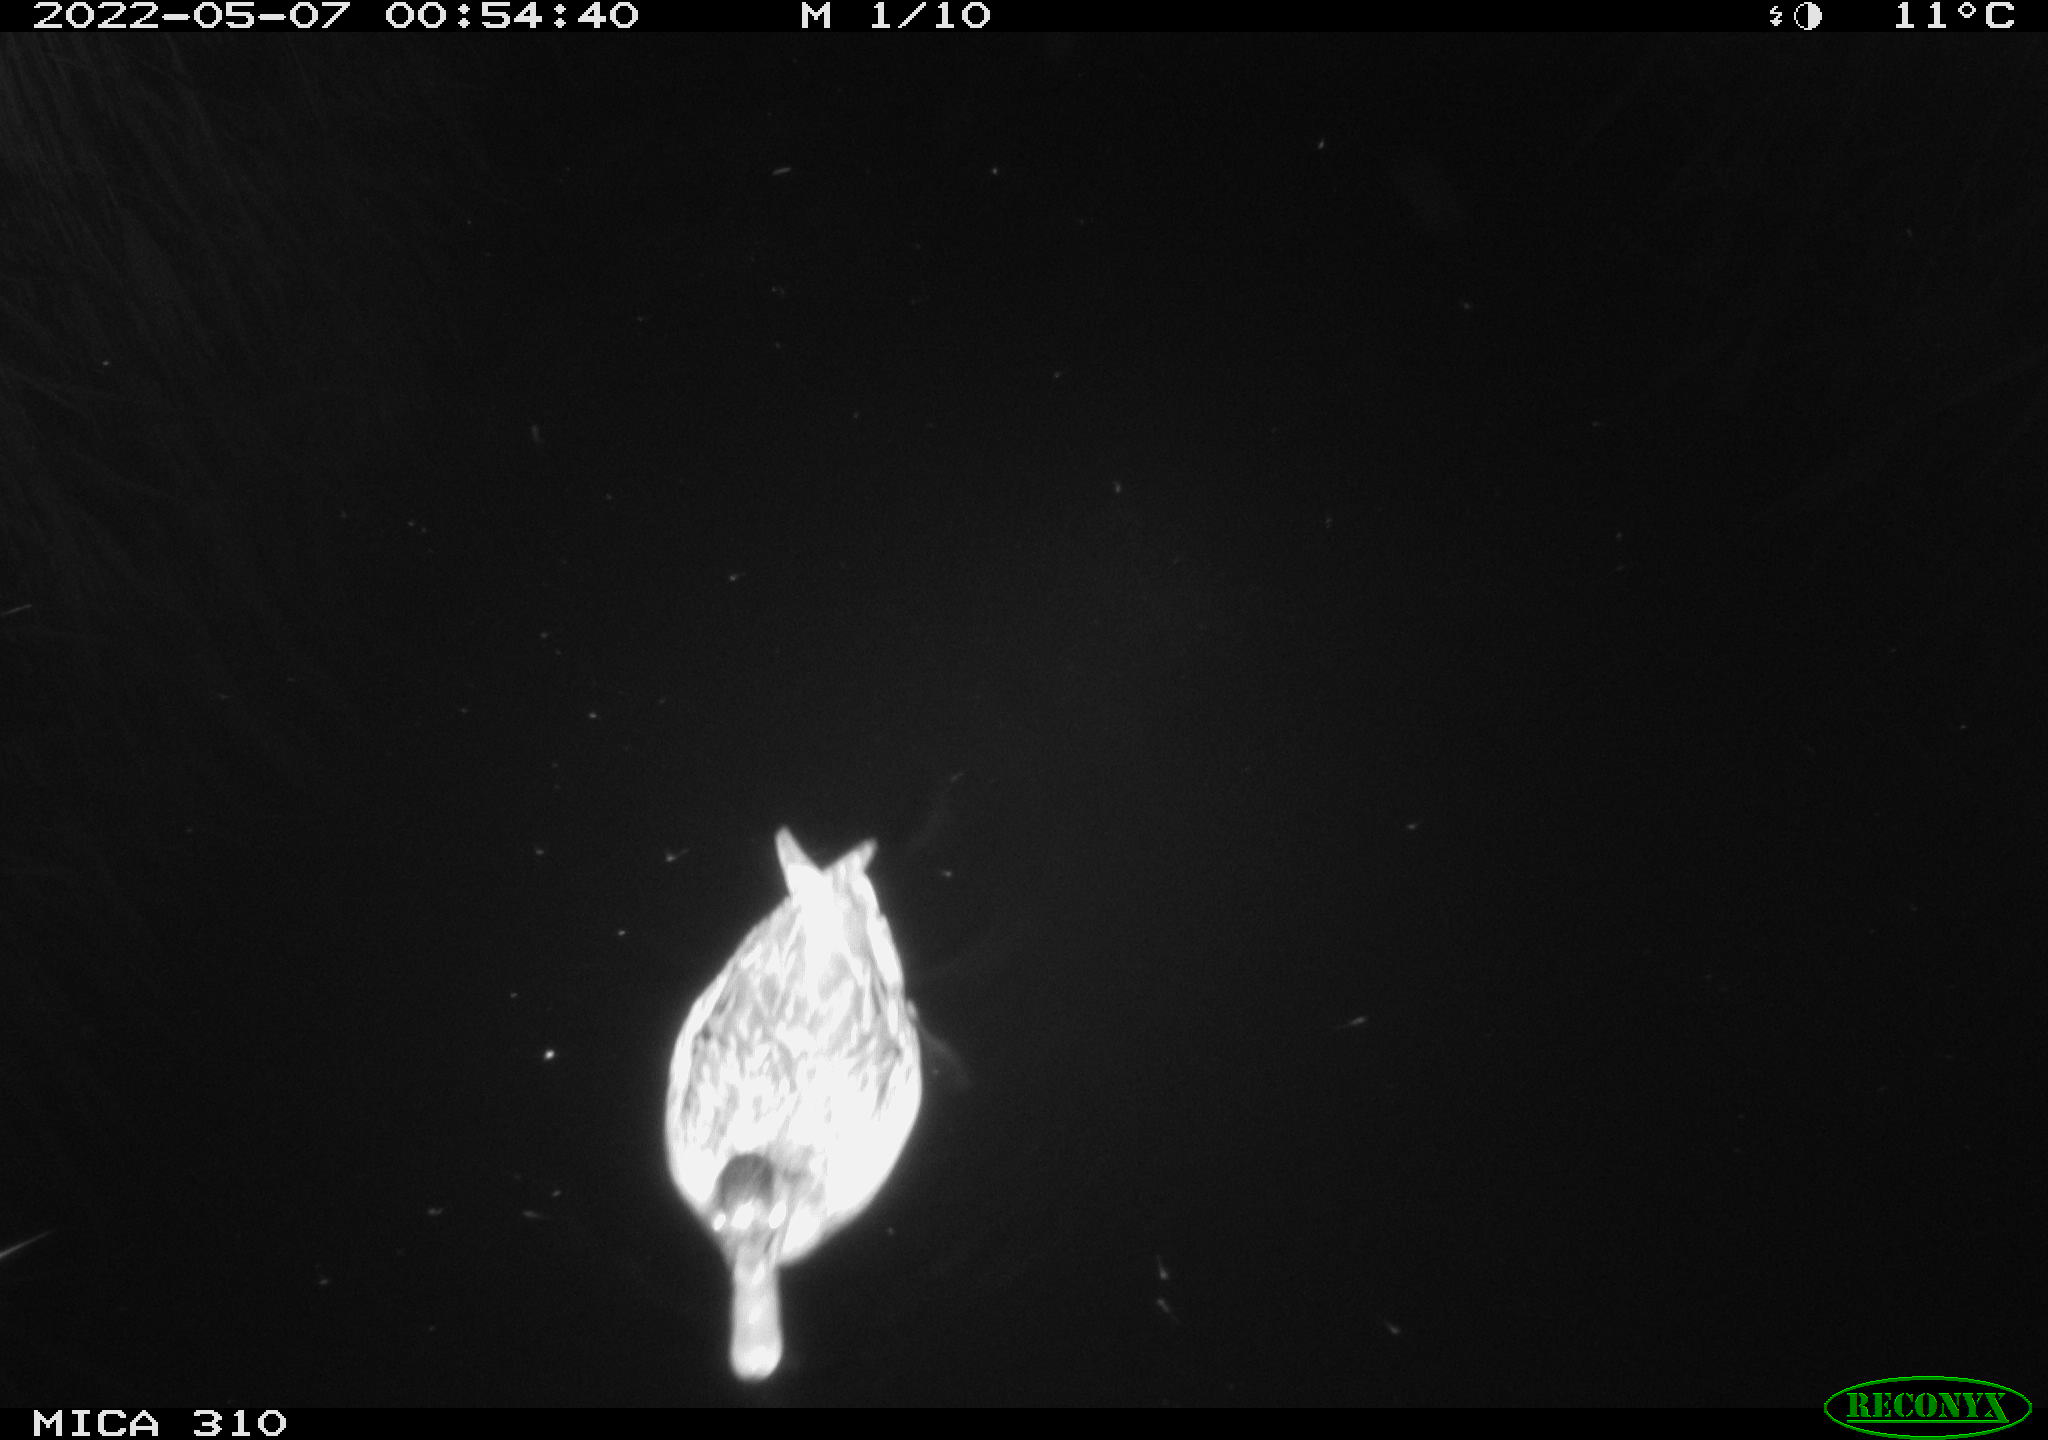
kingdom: Animalia
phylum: Chordata
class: Aves
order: Anseriformes
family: Anatidae
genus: Anas
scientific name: Anas platyrhynchos
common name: Mallard
